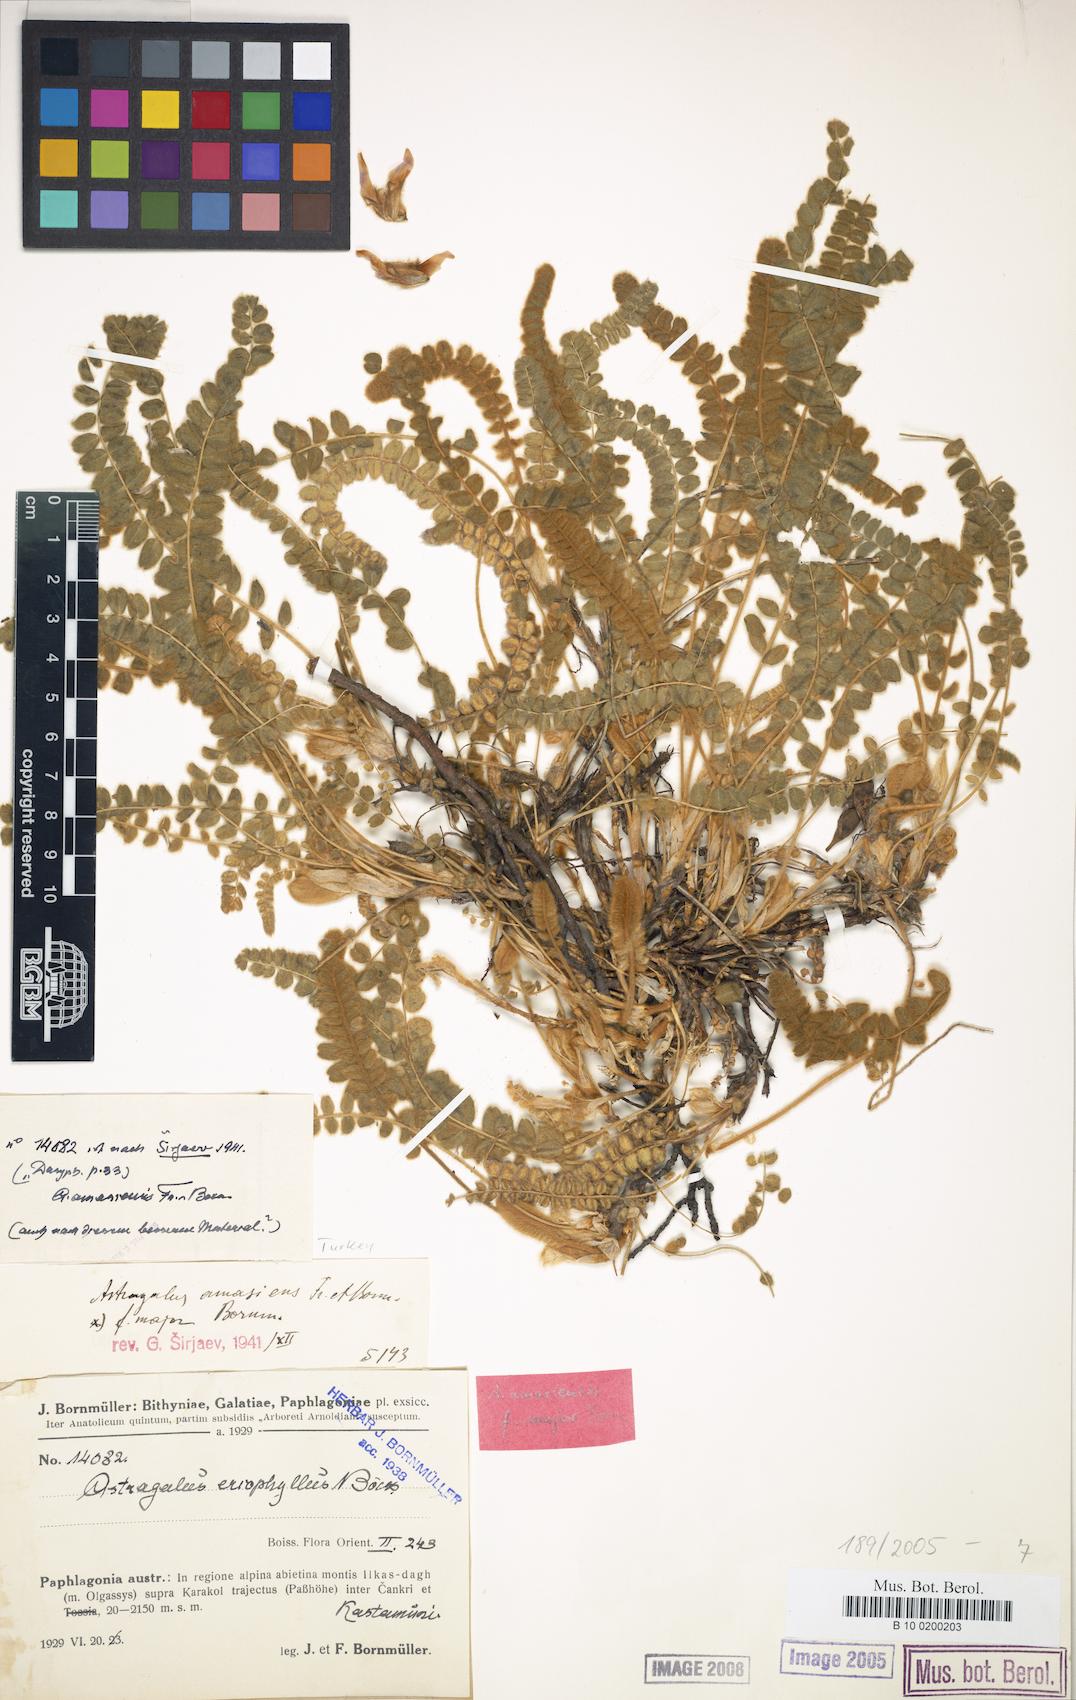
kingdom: Plantae
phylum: Tracheophyta
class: Magnoliopsida
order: Fabales
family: Fabaceae
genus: Astragalus
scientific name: Astragalus densifolius
